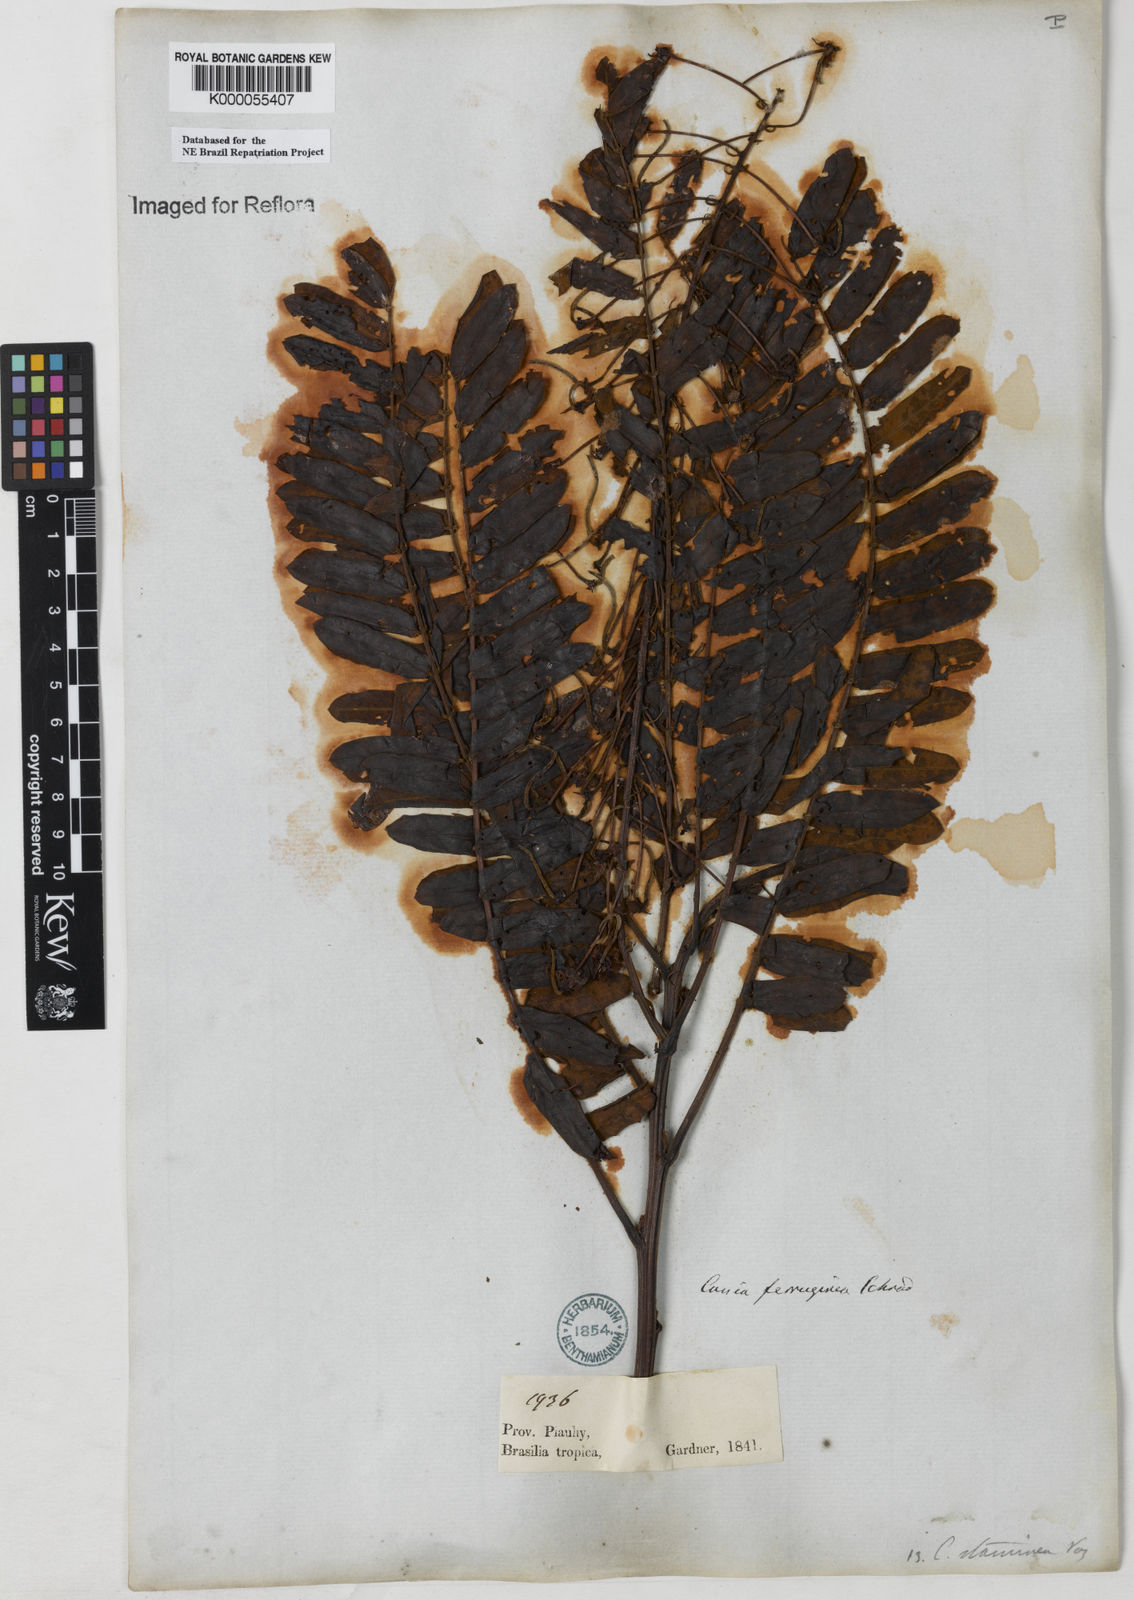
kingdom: Plantae
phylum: Tracheophyta
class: Magnoliopsida
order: Fabales
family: Fabaceae
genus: Cassia
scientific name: Cassia ferruginea
